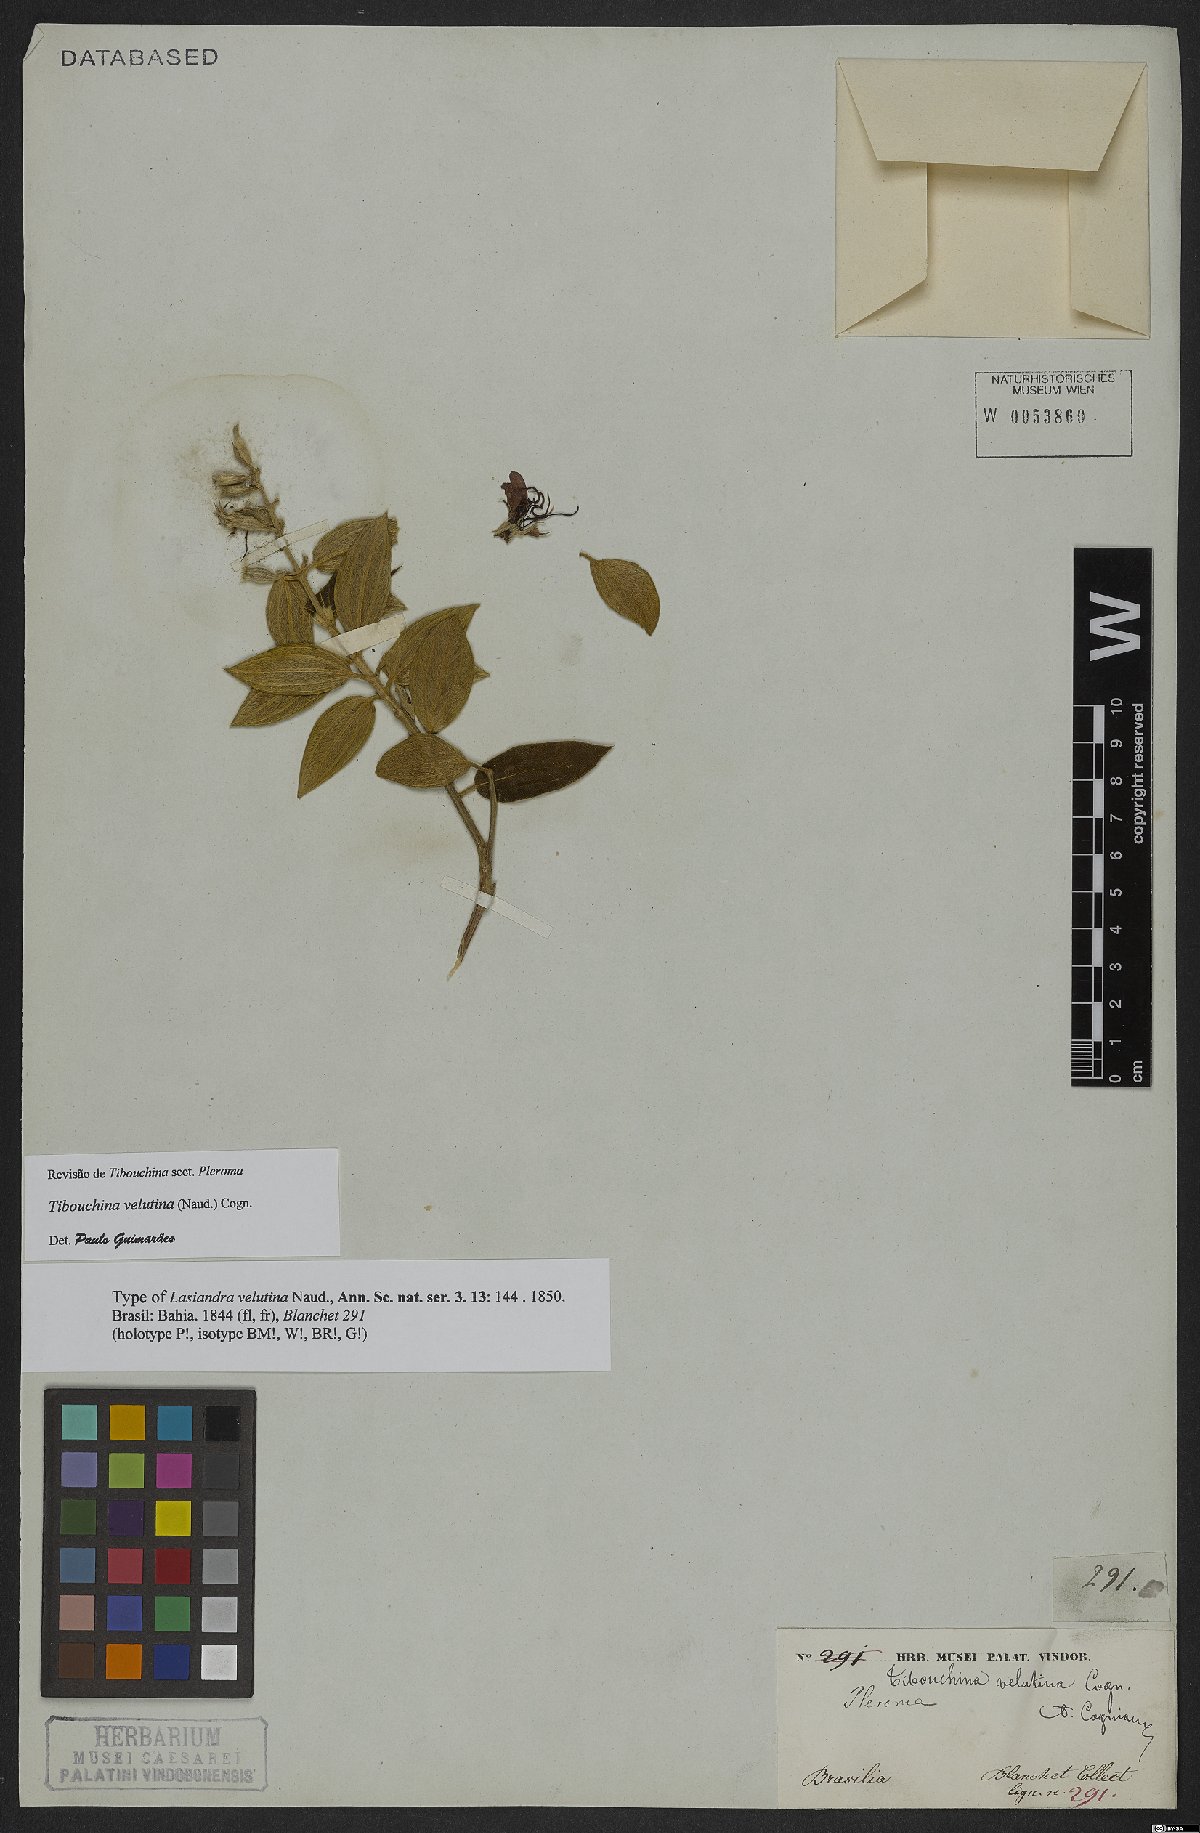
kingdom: Plantae
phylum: Tracheophyta
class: Magnoliopsida
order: Myrtales
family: Melastomataceae
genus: Pleroma
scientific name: Pleroma velutinum
